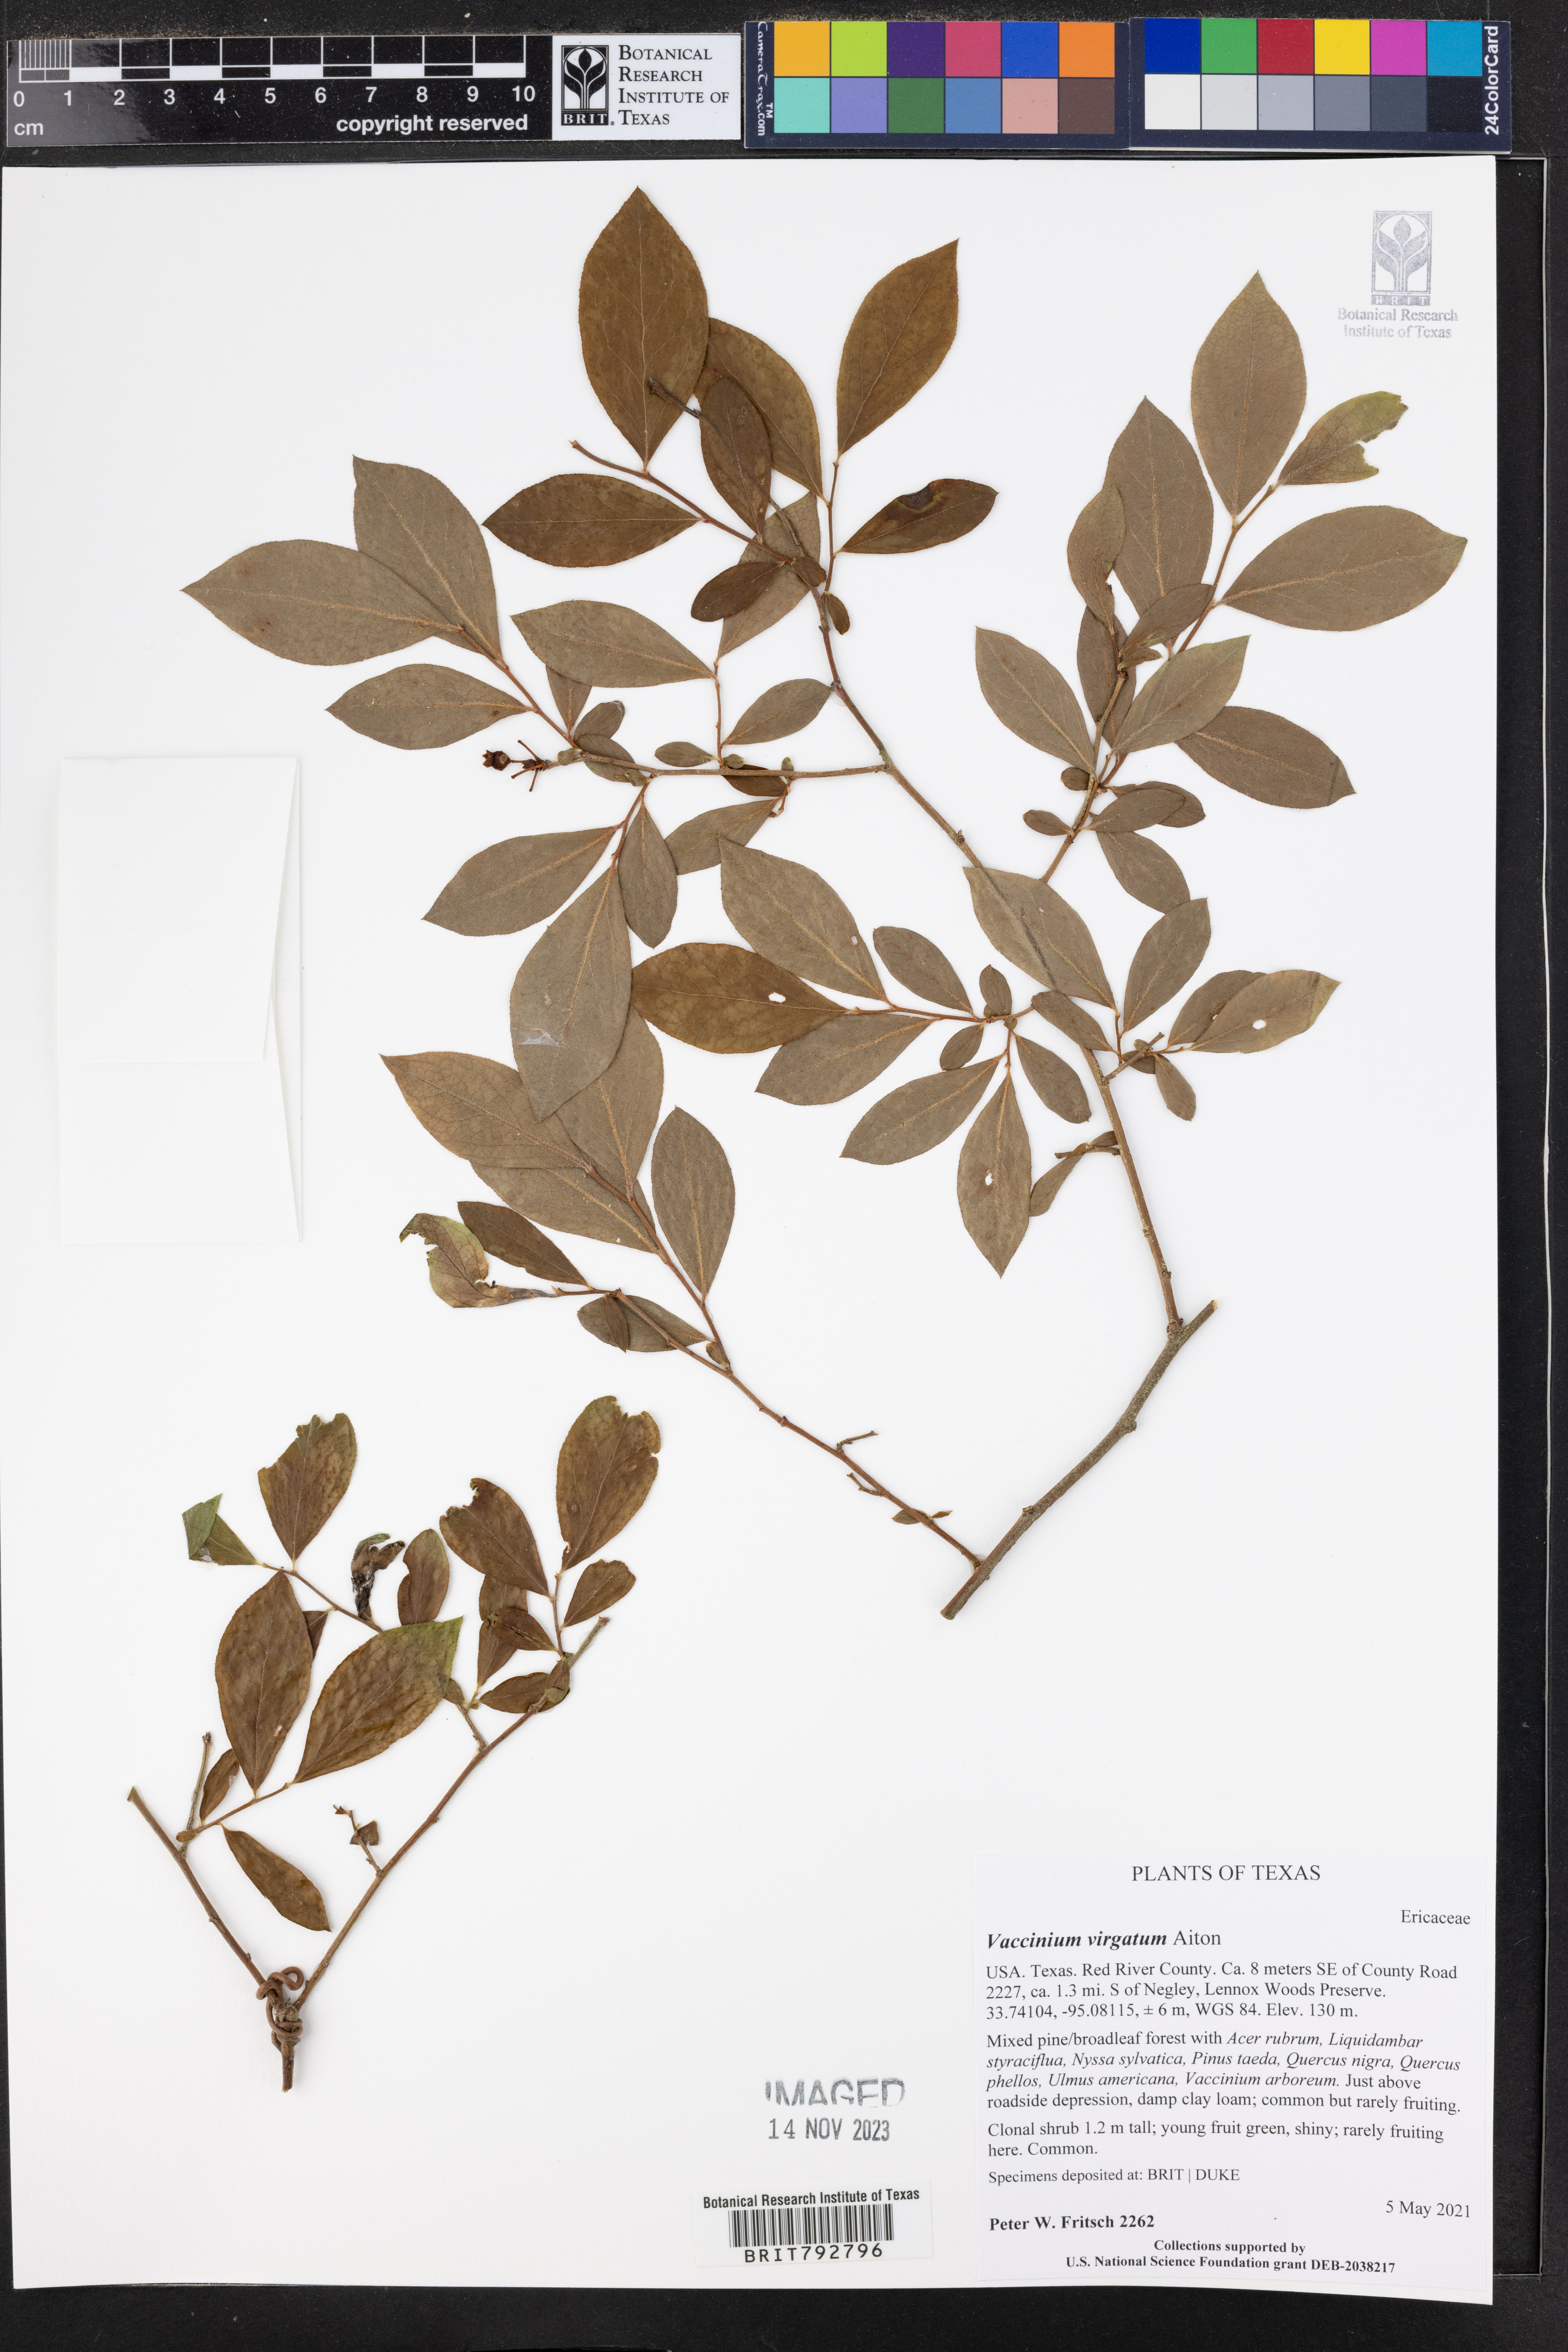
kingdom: Plantae
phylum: Tracheophyta
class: Magnoliopsida
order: Ericales
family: Ericaceae
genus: Vaccinium
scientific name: Vaccinium corymbosum
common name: Blueberry
